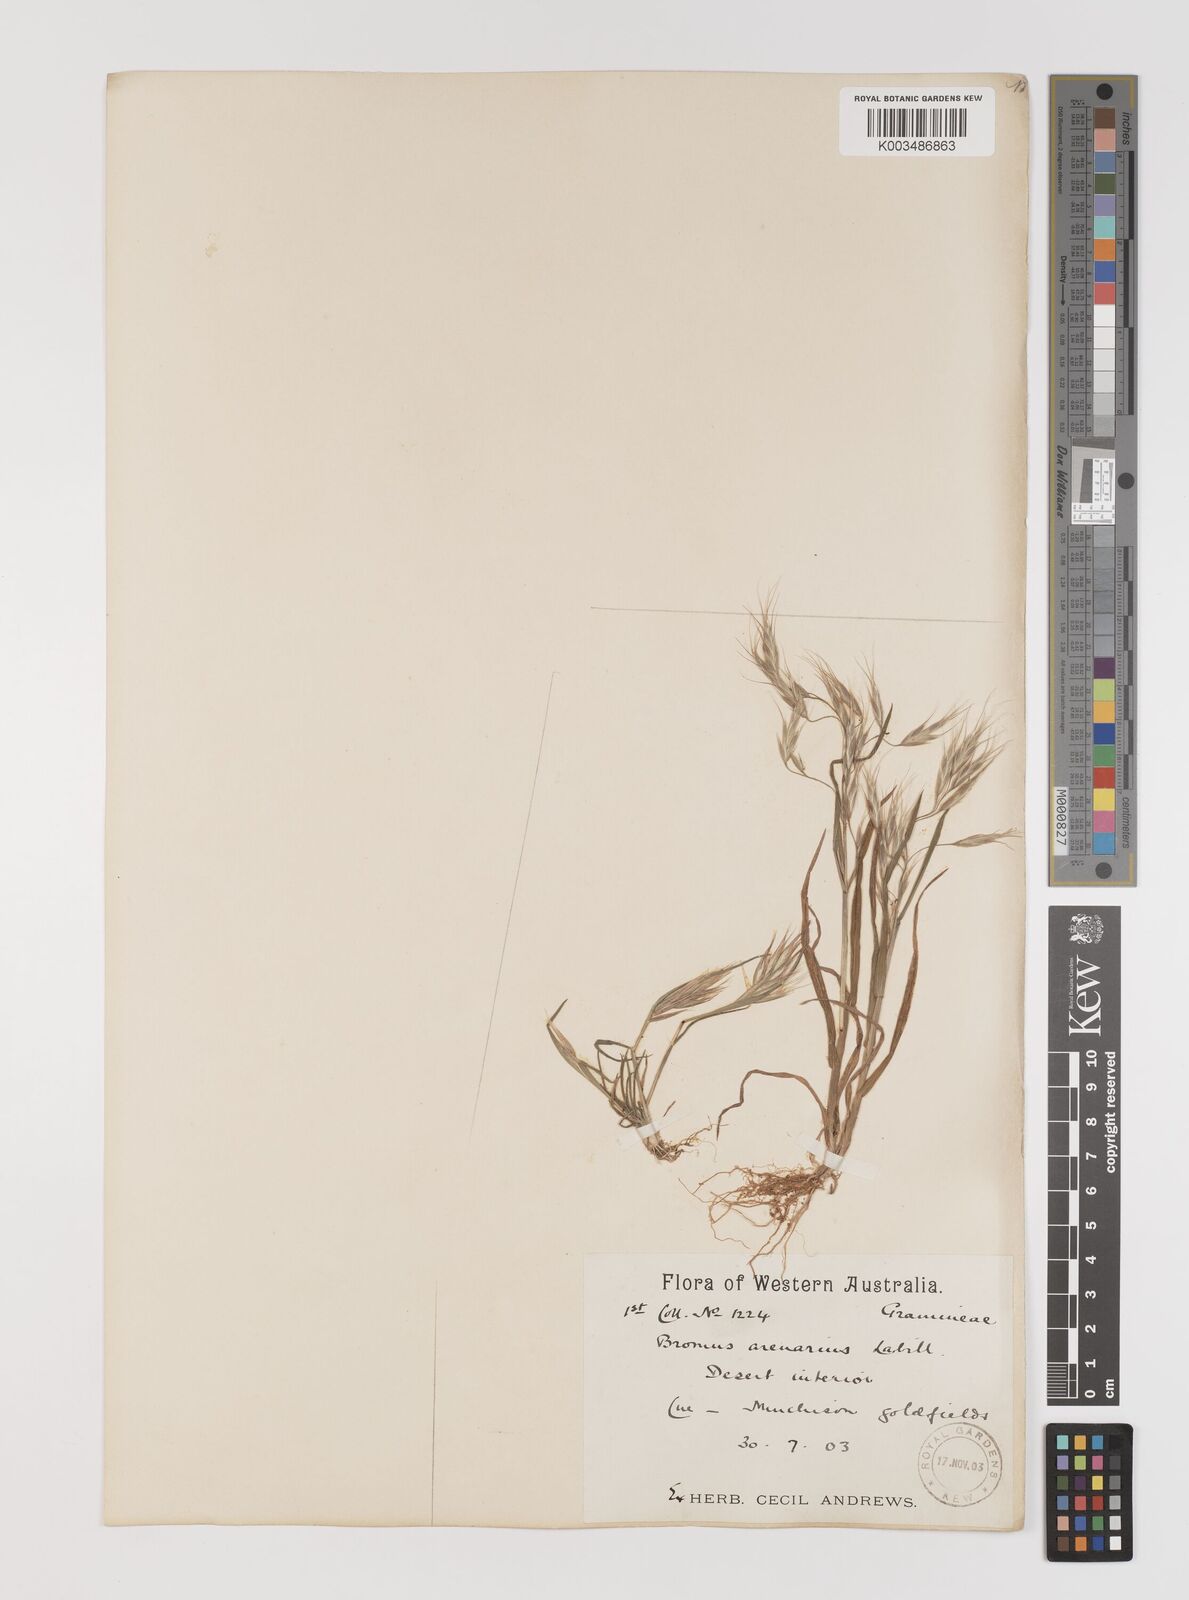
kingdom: Plantae
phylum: Tracheophyta
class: Liliopsida
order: Poales
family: Poaceae
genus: Bromus
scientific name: Bromus arenarius
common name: Australian brome
